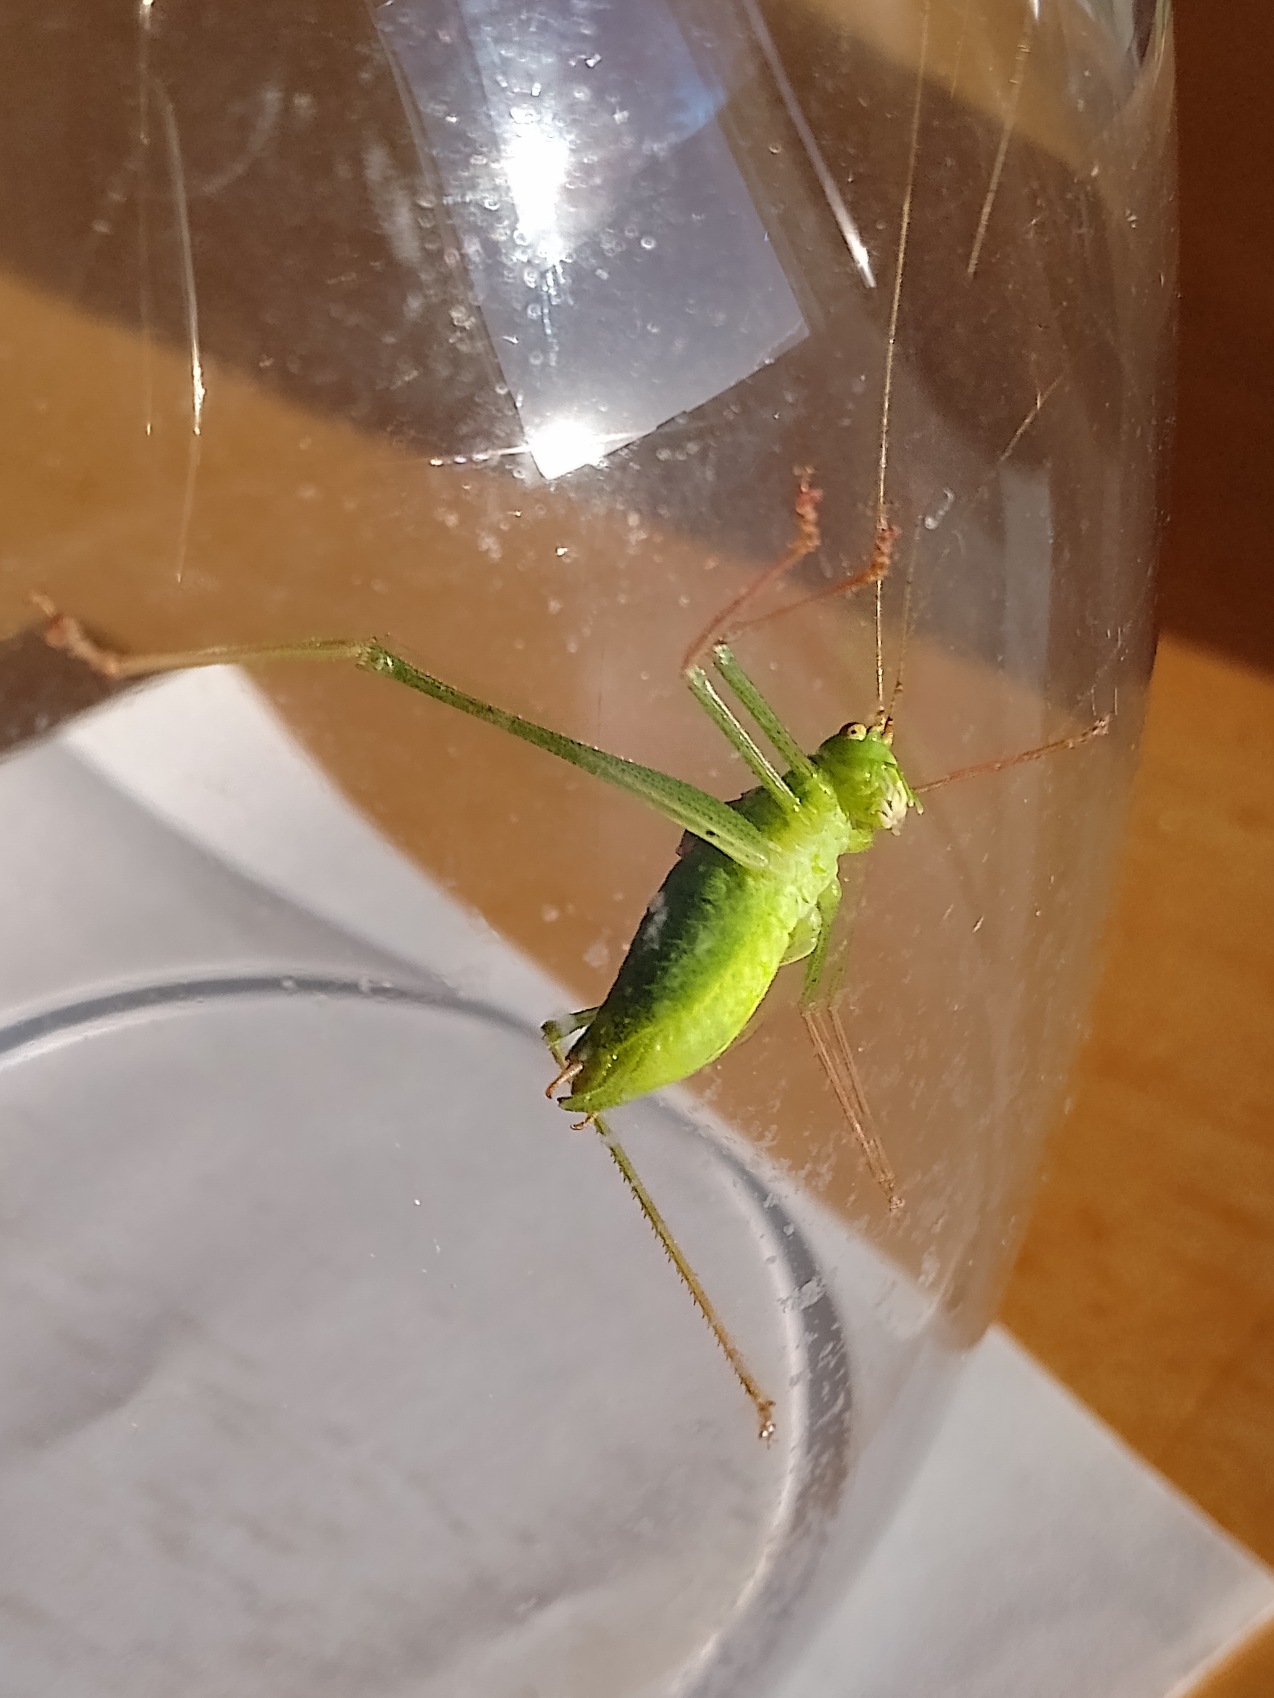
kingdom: Animalia
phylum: Arthropoda
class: Insecta
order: Orthoptera
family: Tettigoniidae
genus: Leptophyes
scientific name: Leptophyes punctatissima
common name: Krumknivgræshoppe
